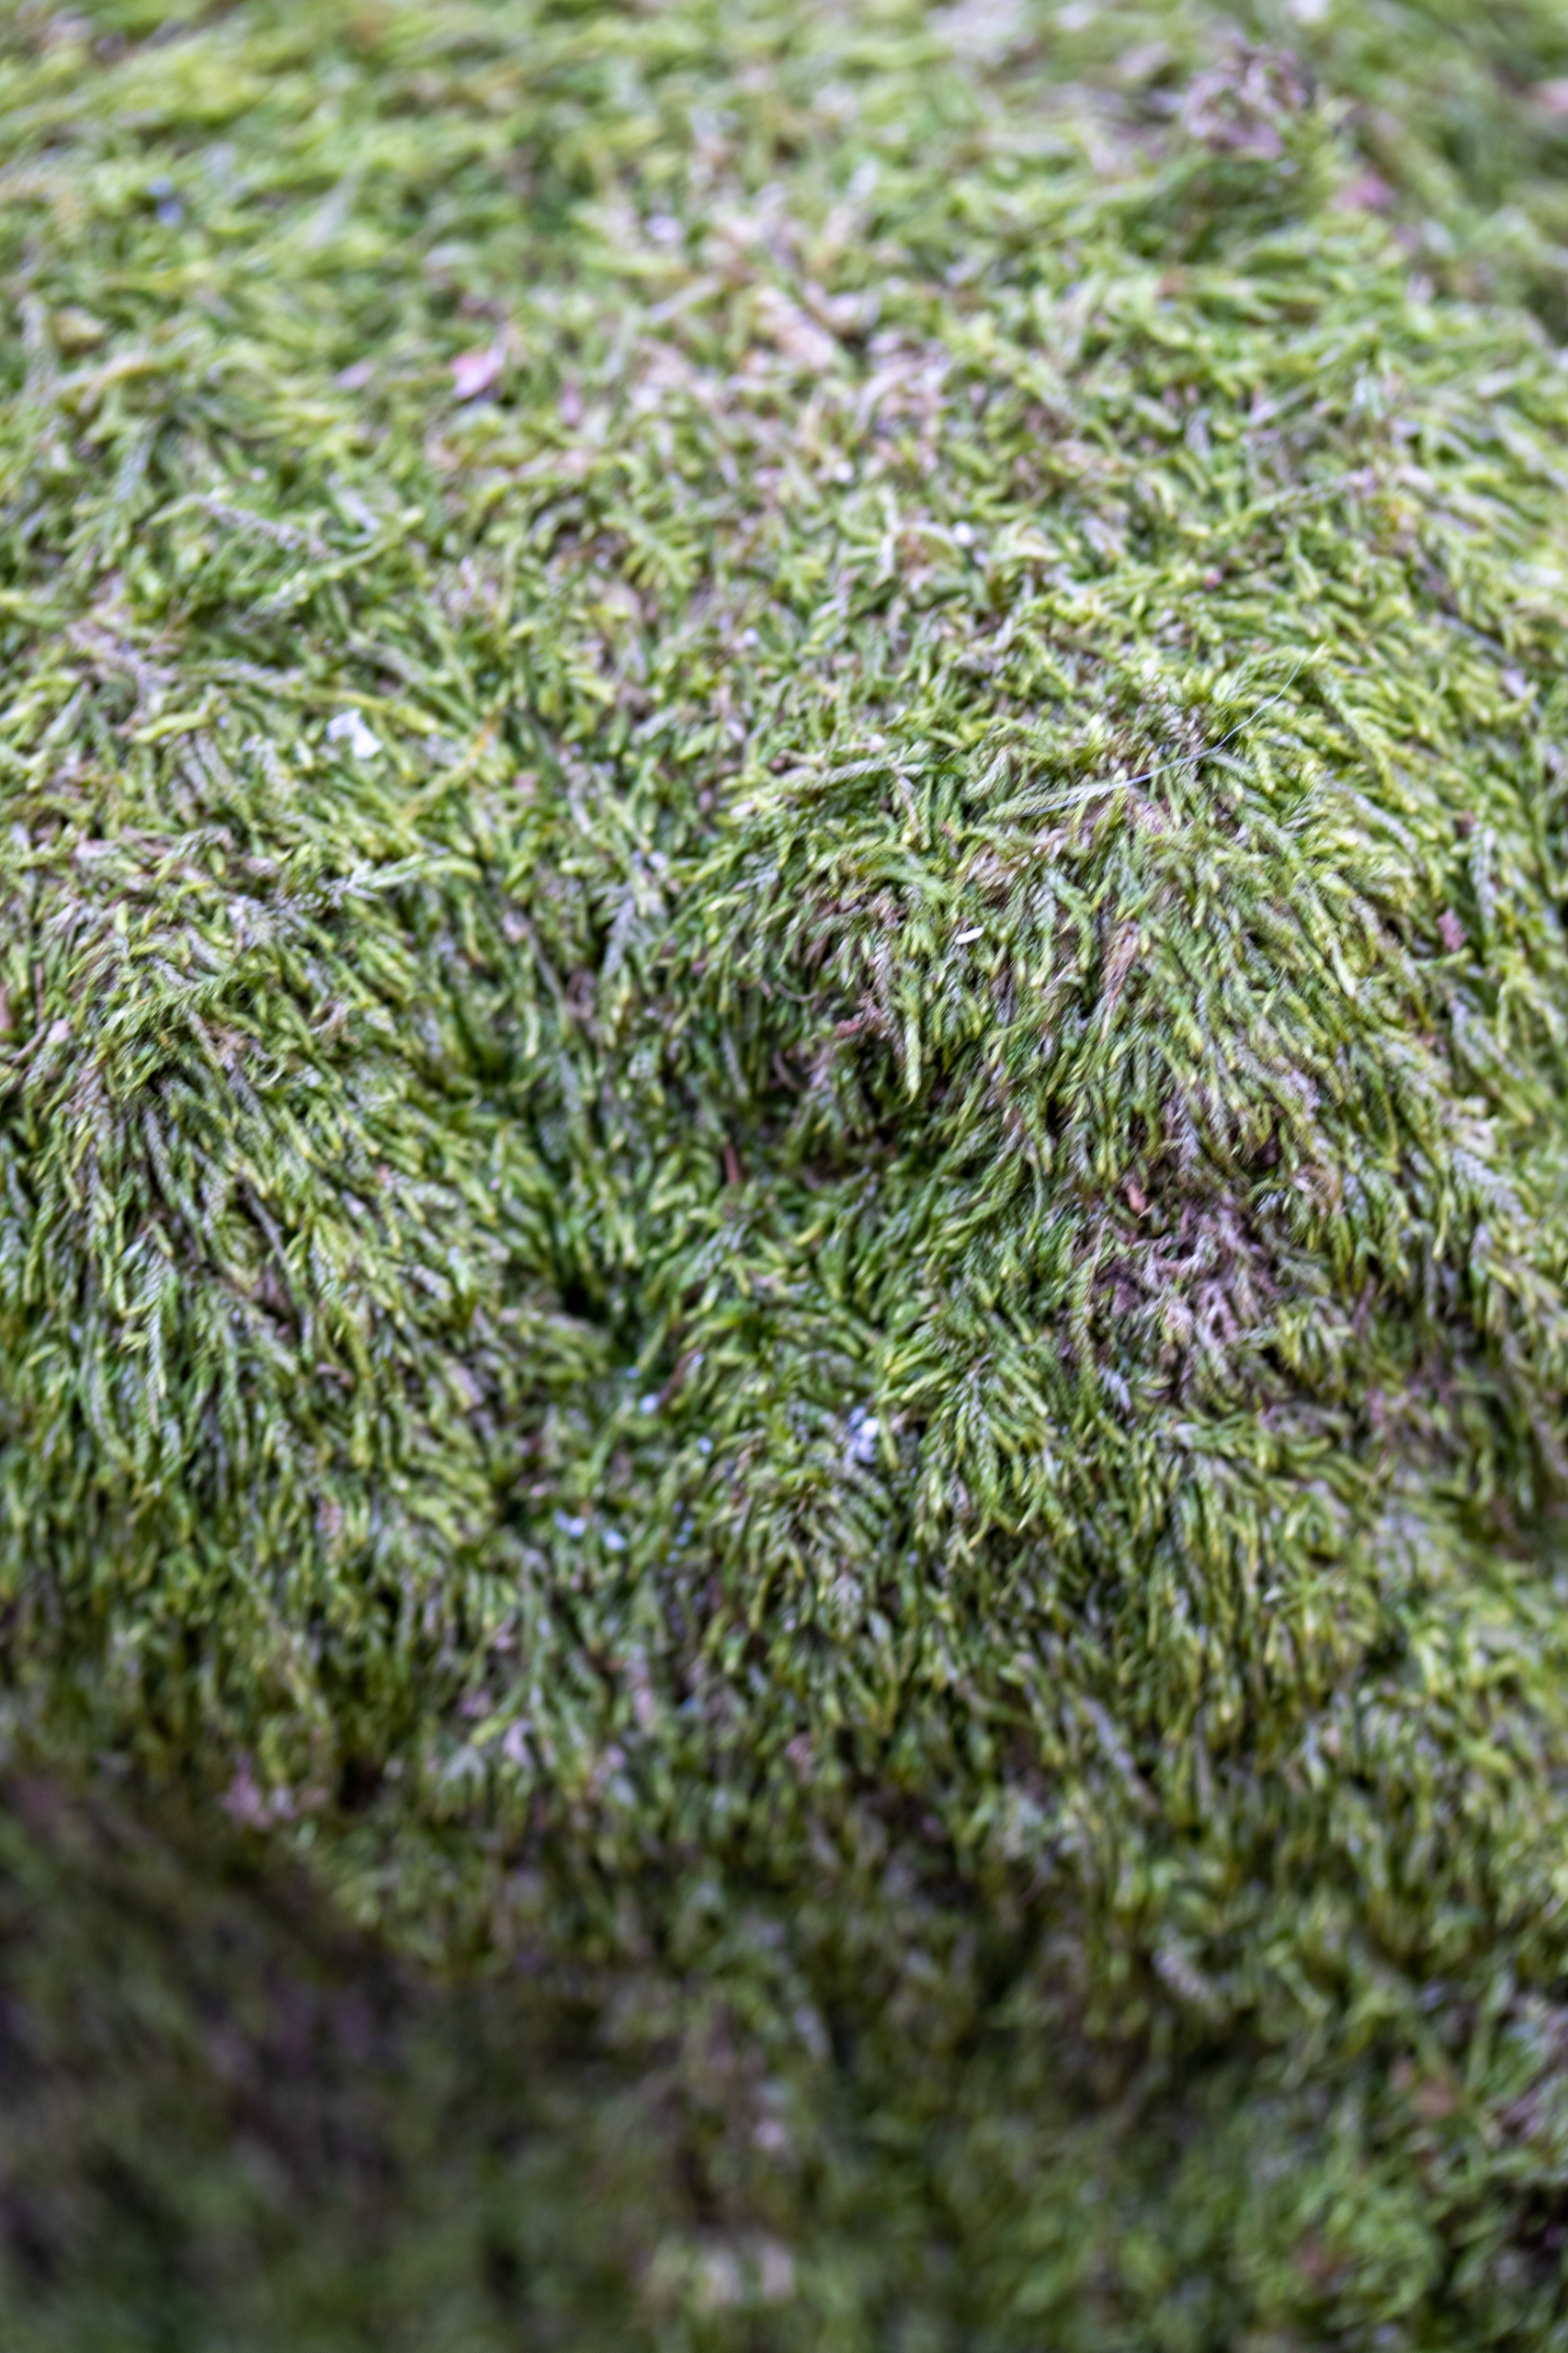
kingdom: Plantae
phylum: Bryophyta
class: Bryopsida
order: Hypnales
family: Hypnaceae
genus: Hypnum
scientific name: Hypnum cupressiforme
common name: Almindelig cypresmos
